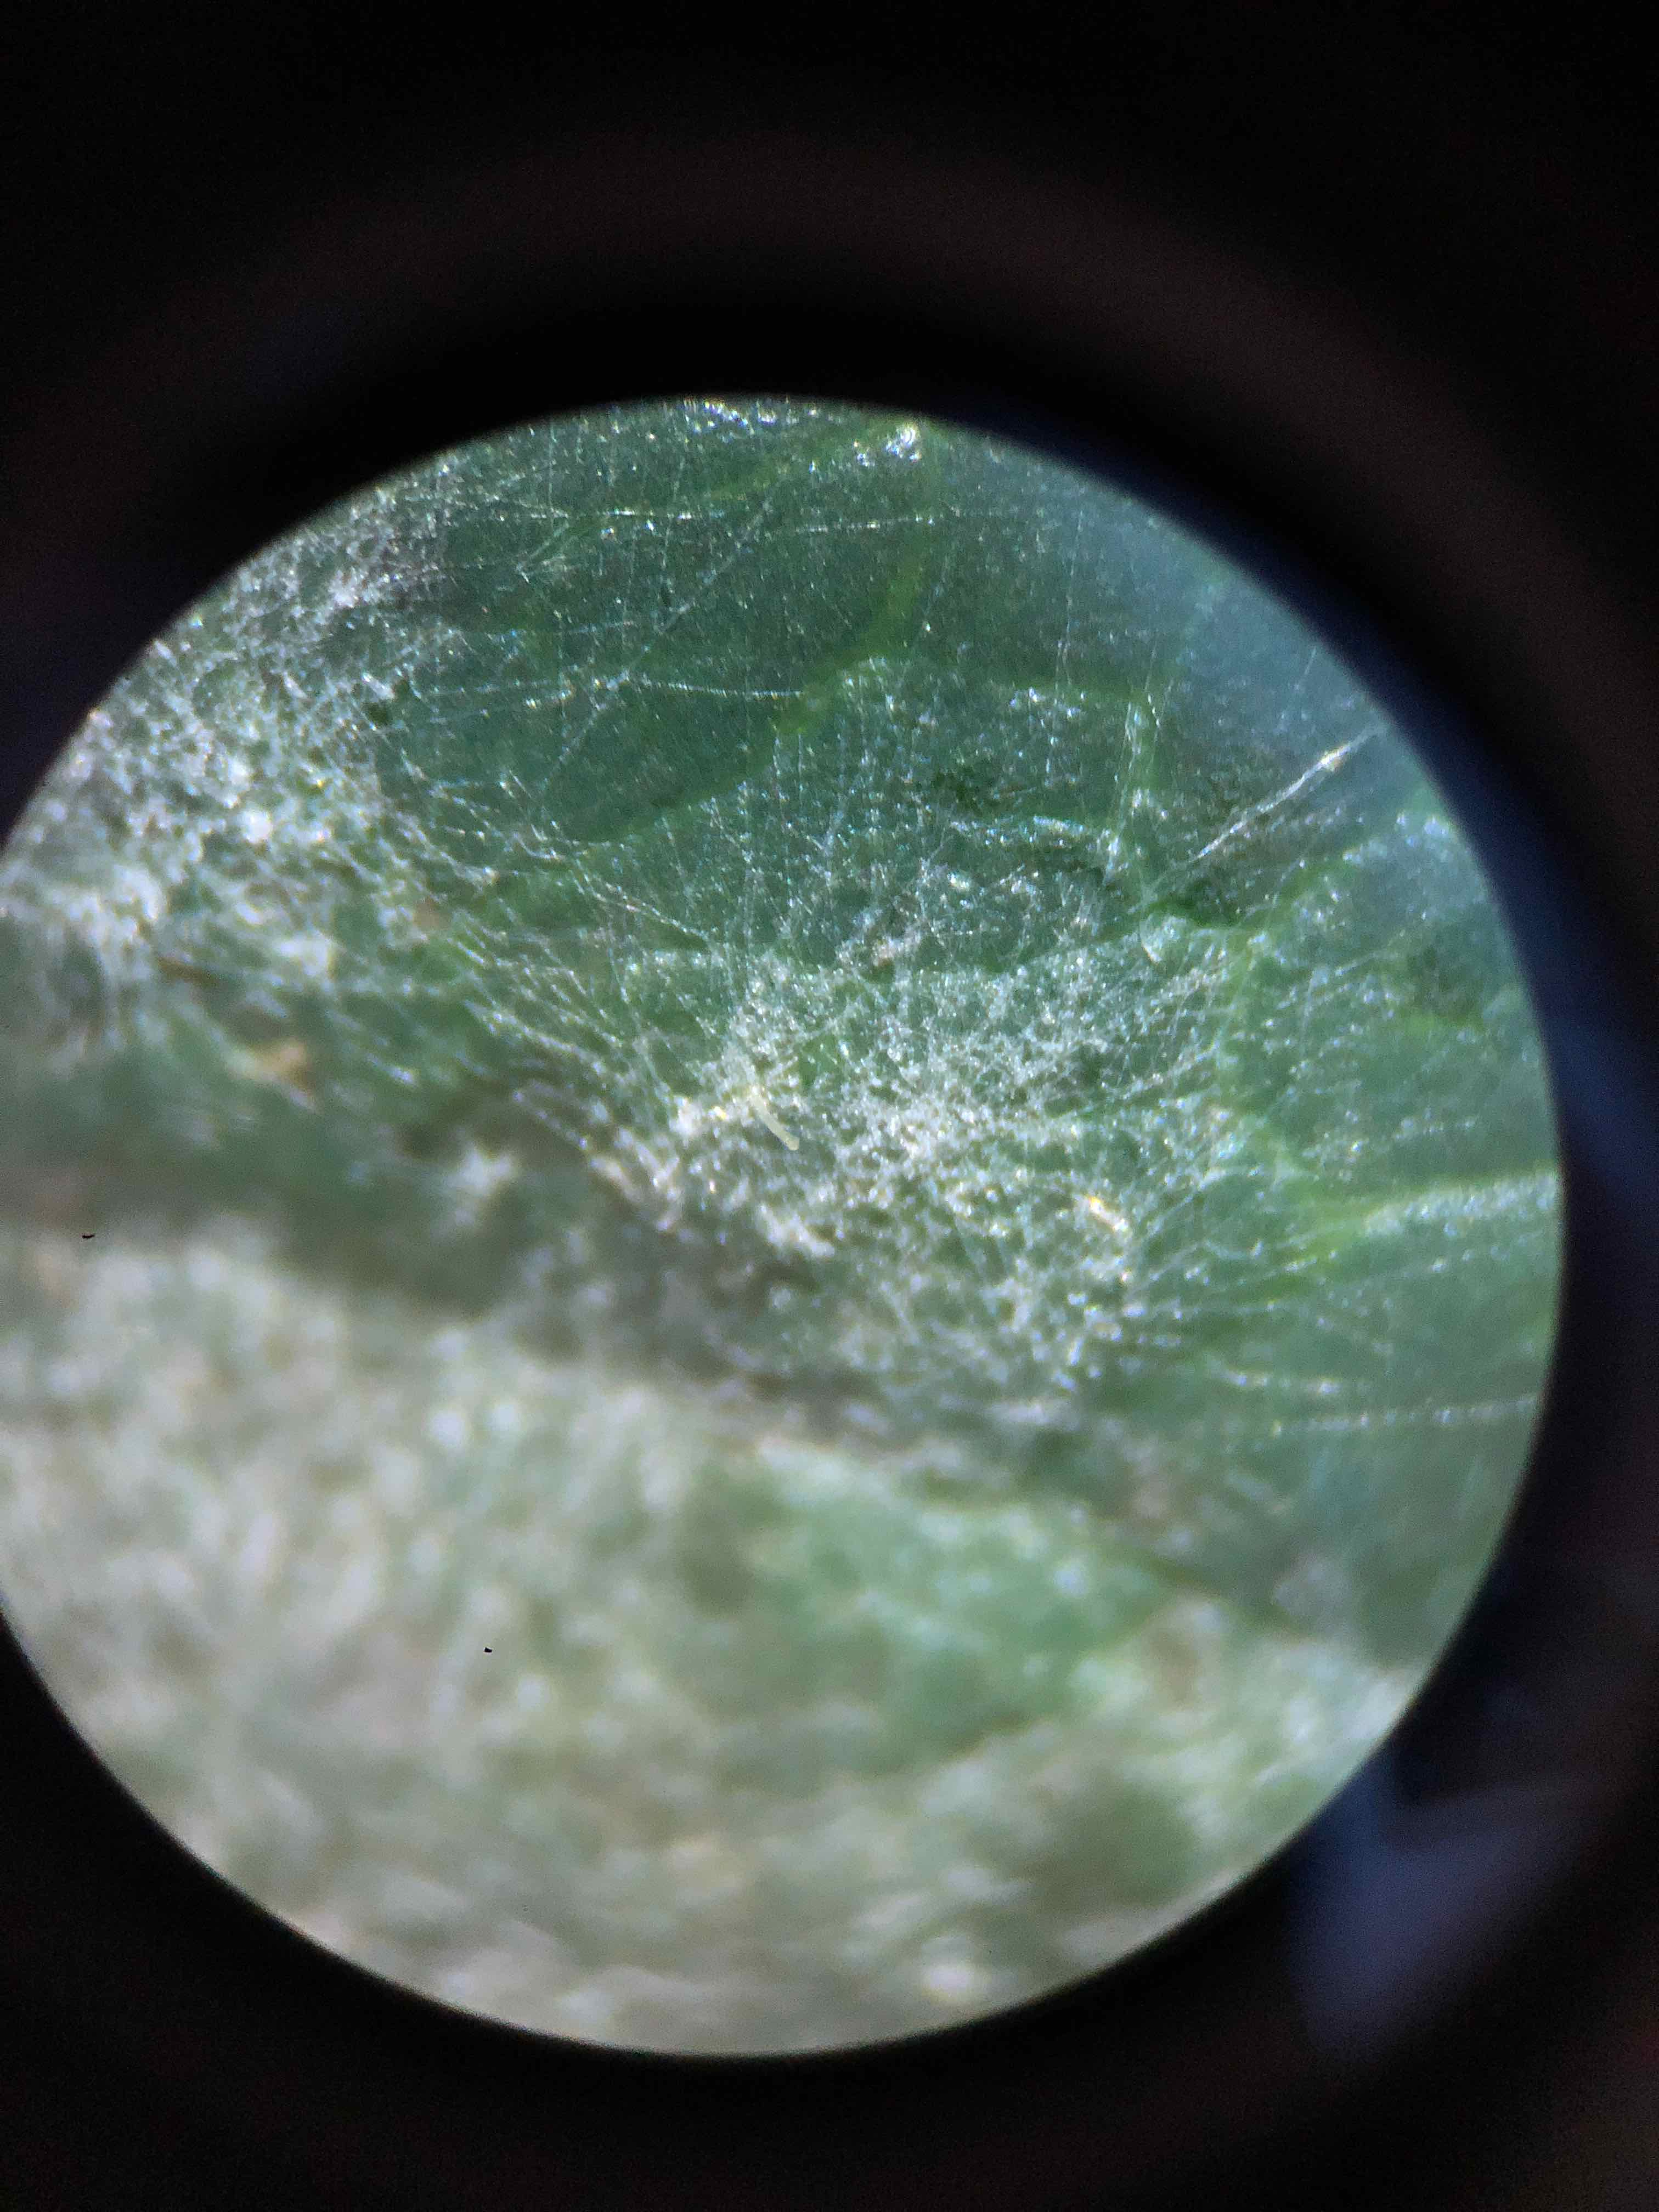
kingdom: Fungi
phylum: Ascomycota
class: Leotiomycetes
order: Helotiales
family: Erysiphaceae
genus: Erysiphe
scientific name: Erysiphe lonicerae
